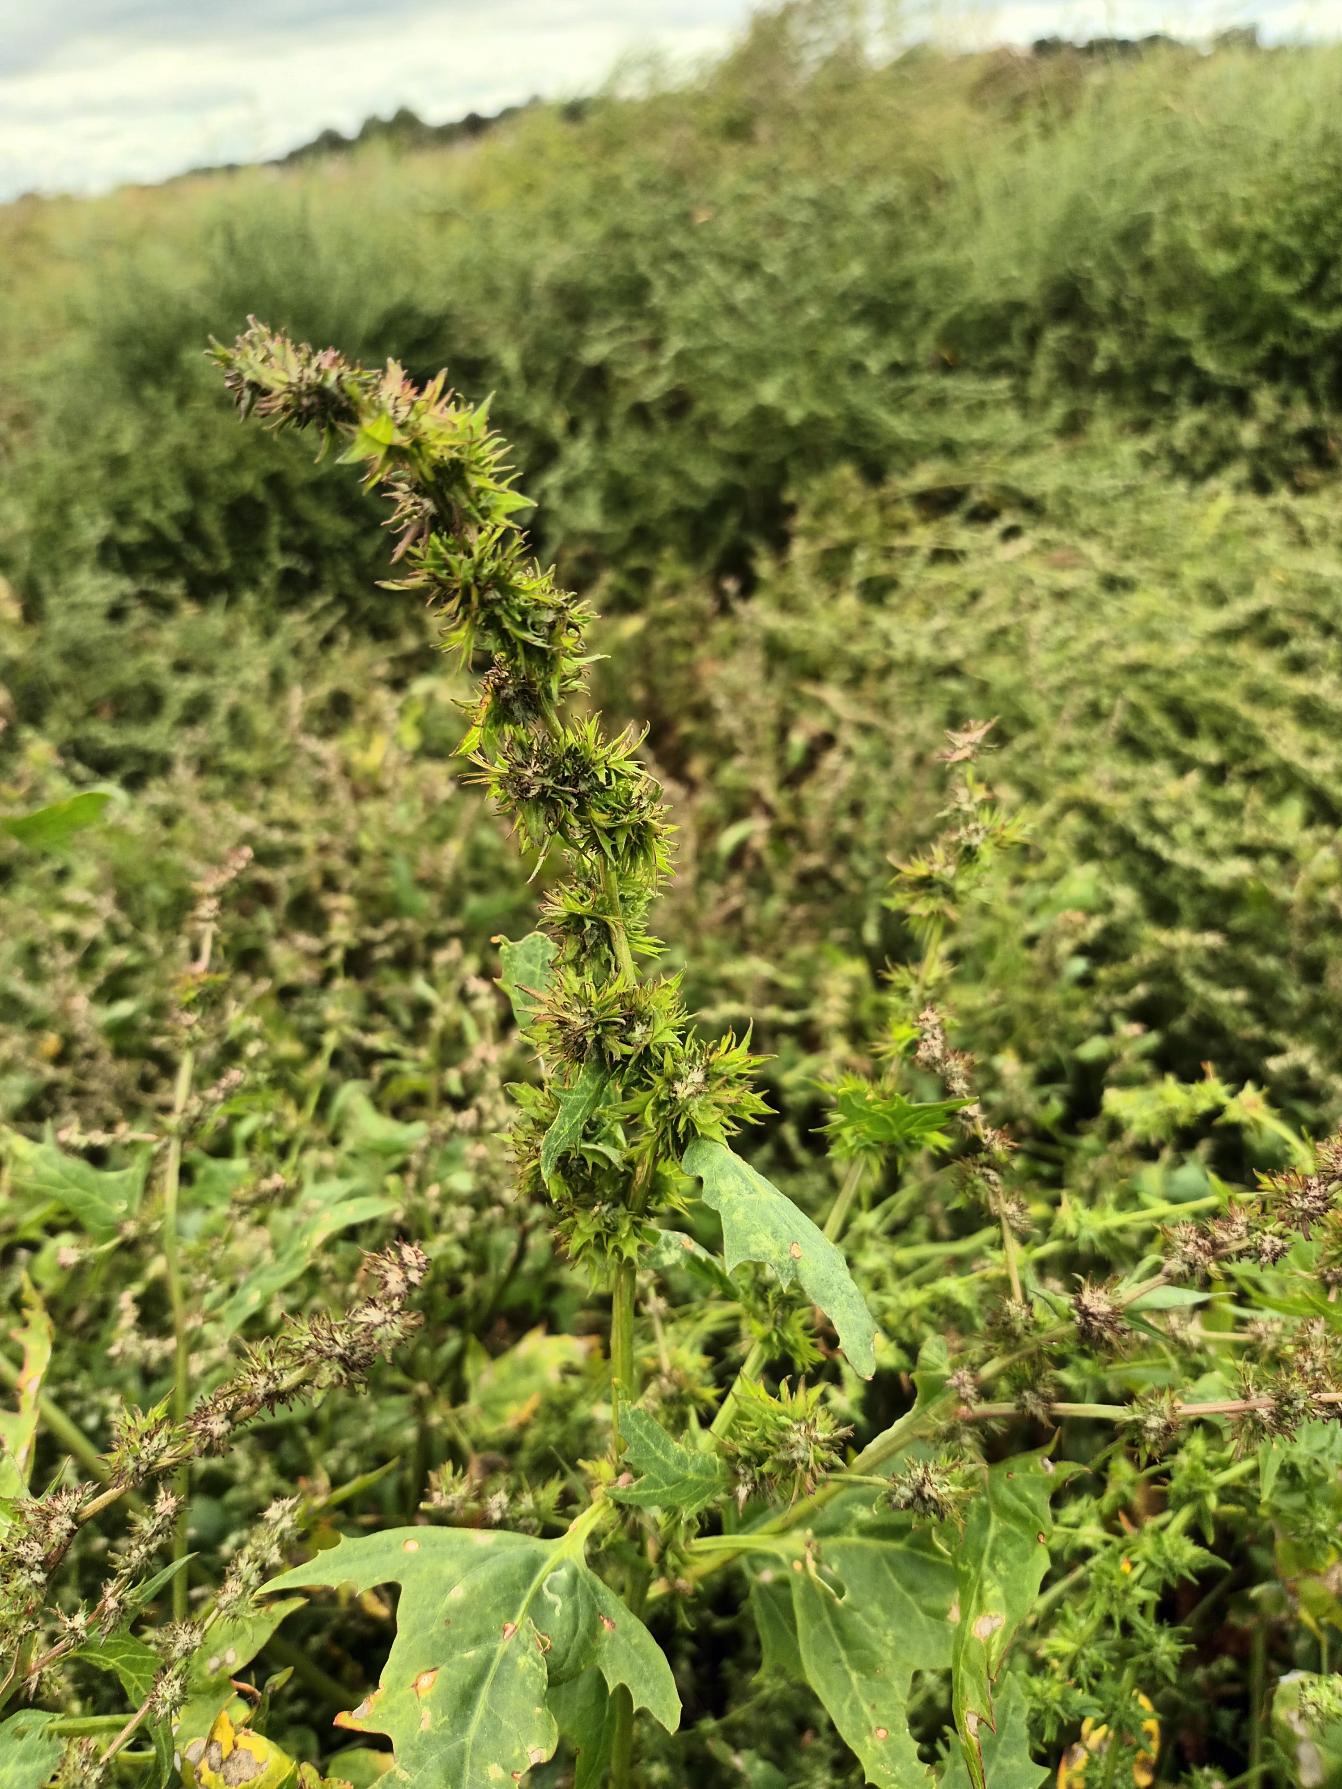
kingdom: Plantae
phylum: Tracheophyta
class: Magnoliopsida
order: Caryophyllales
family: Amaranthaceae
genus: Atriplex
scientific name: Atriplex calotheca
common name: Skønbægret mælde
